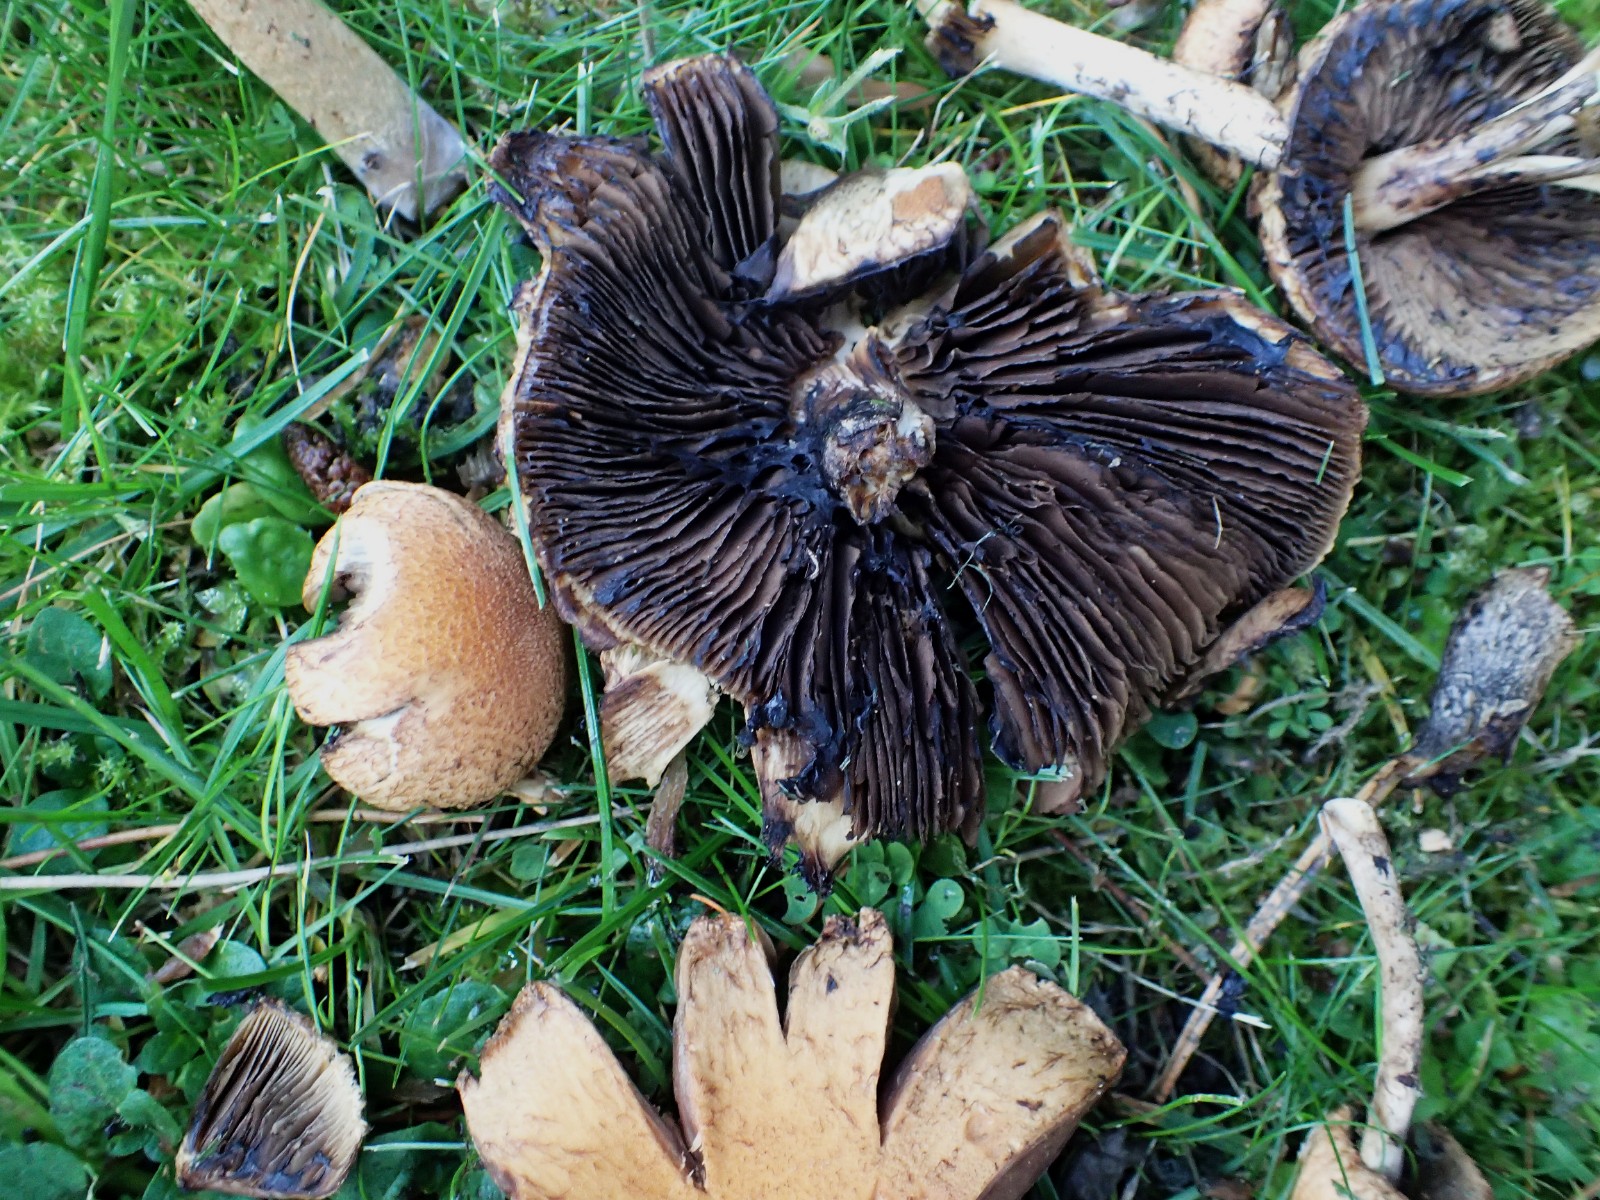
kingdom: Fungi
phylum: Basidiomycota
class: Agaricomycetes
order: Agaricales
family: Psathyrellaceae
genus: Lacrymaria
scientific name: Lacrymaria lacrymabunda
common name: grædende mørkhat
